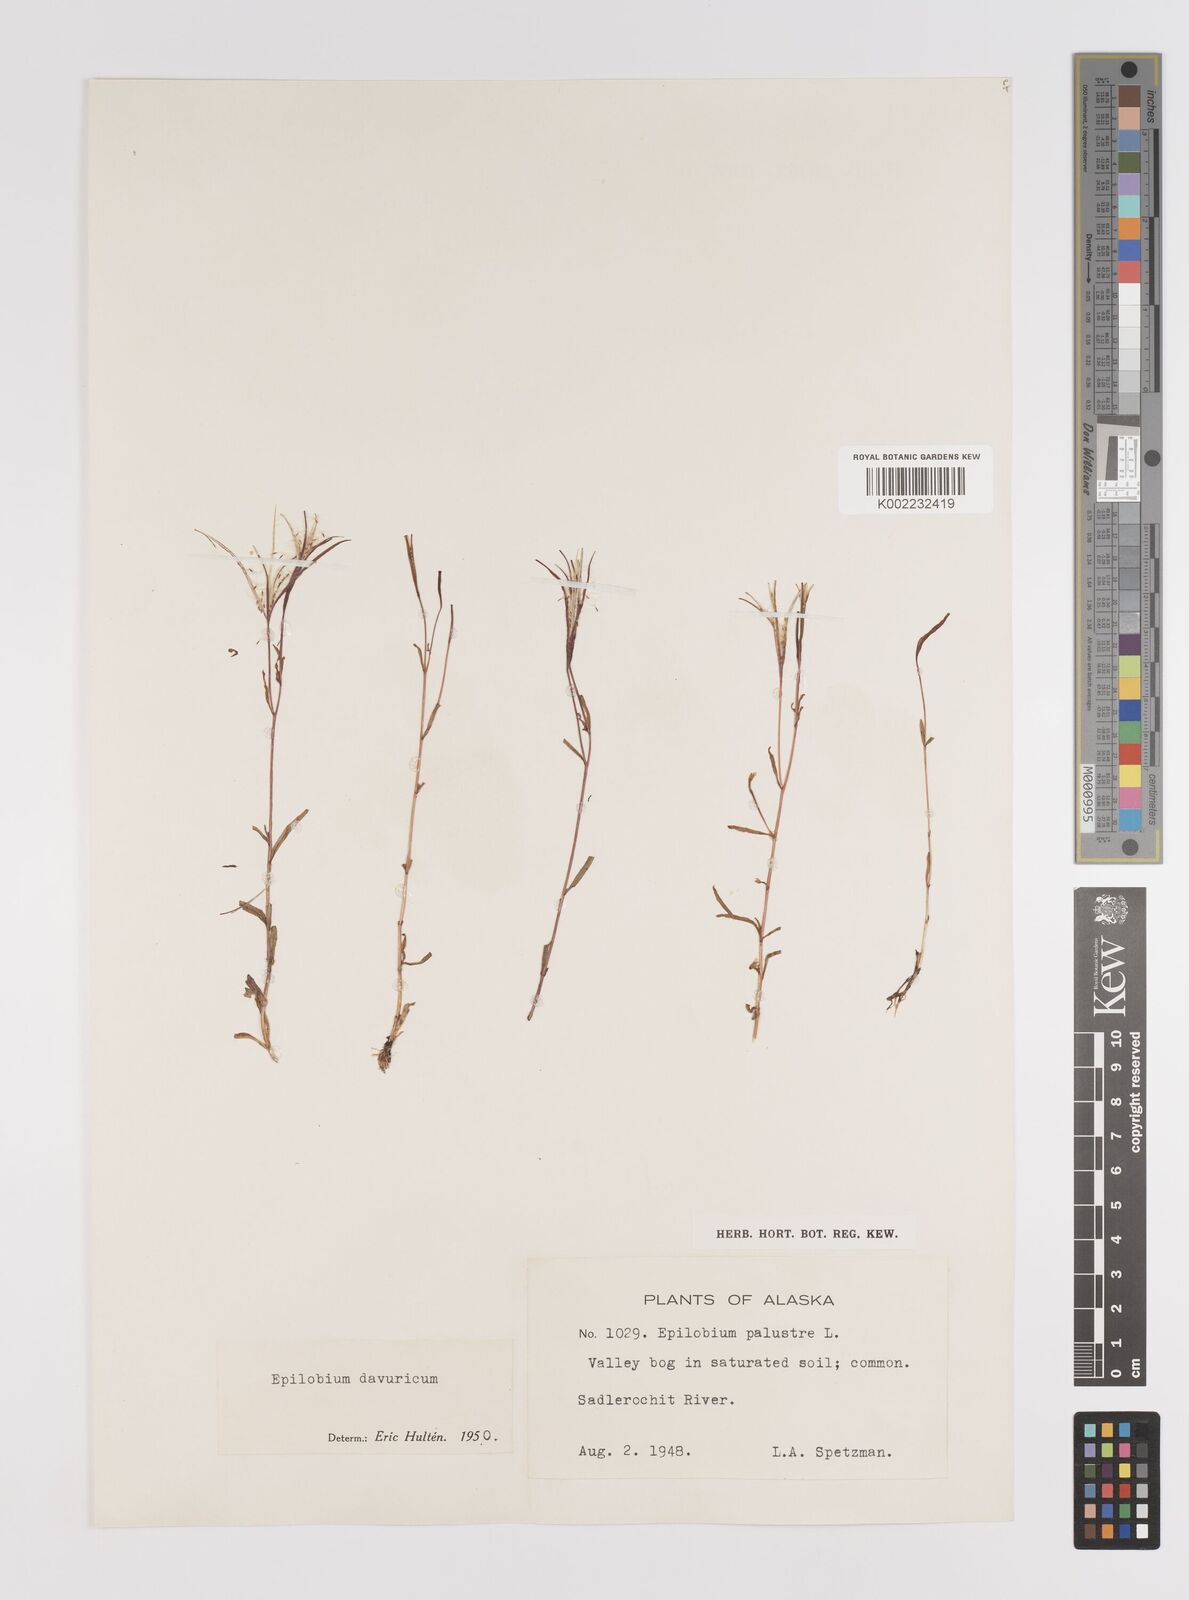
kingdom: Plantae
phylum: Tracheophyta
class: Magnoliopsida
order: Myrtales
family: Onagraceae
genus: Epilobium
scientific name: Epilobium palustre
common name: Marsh willowherb
